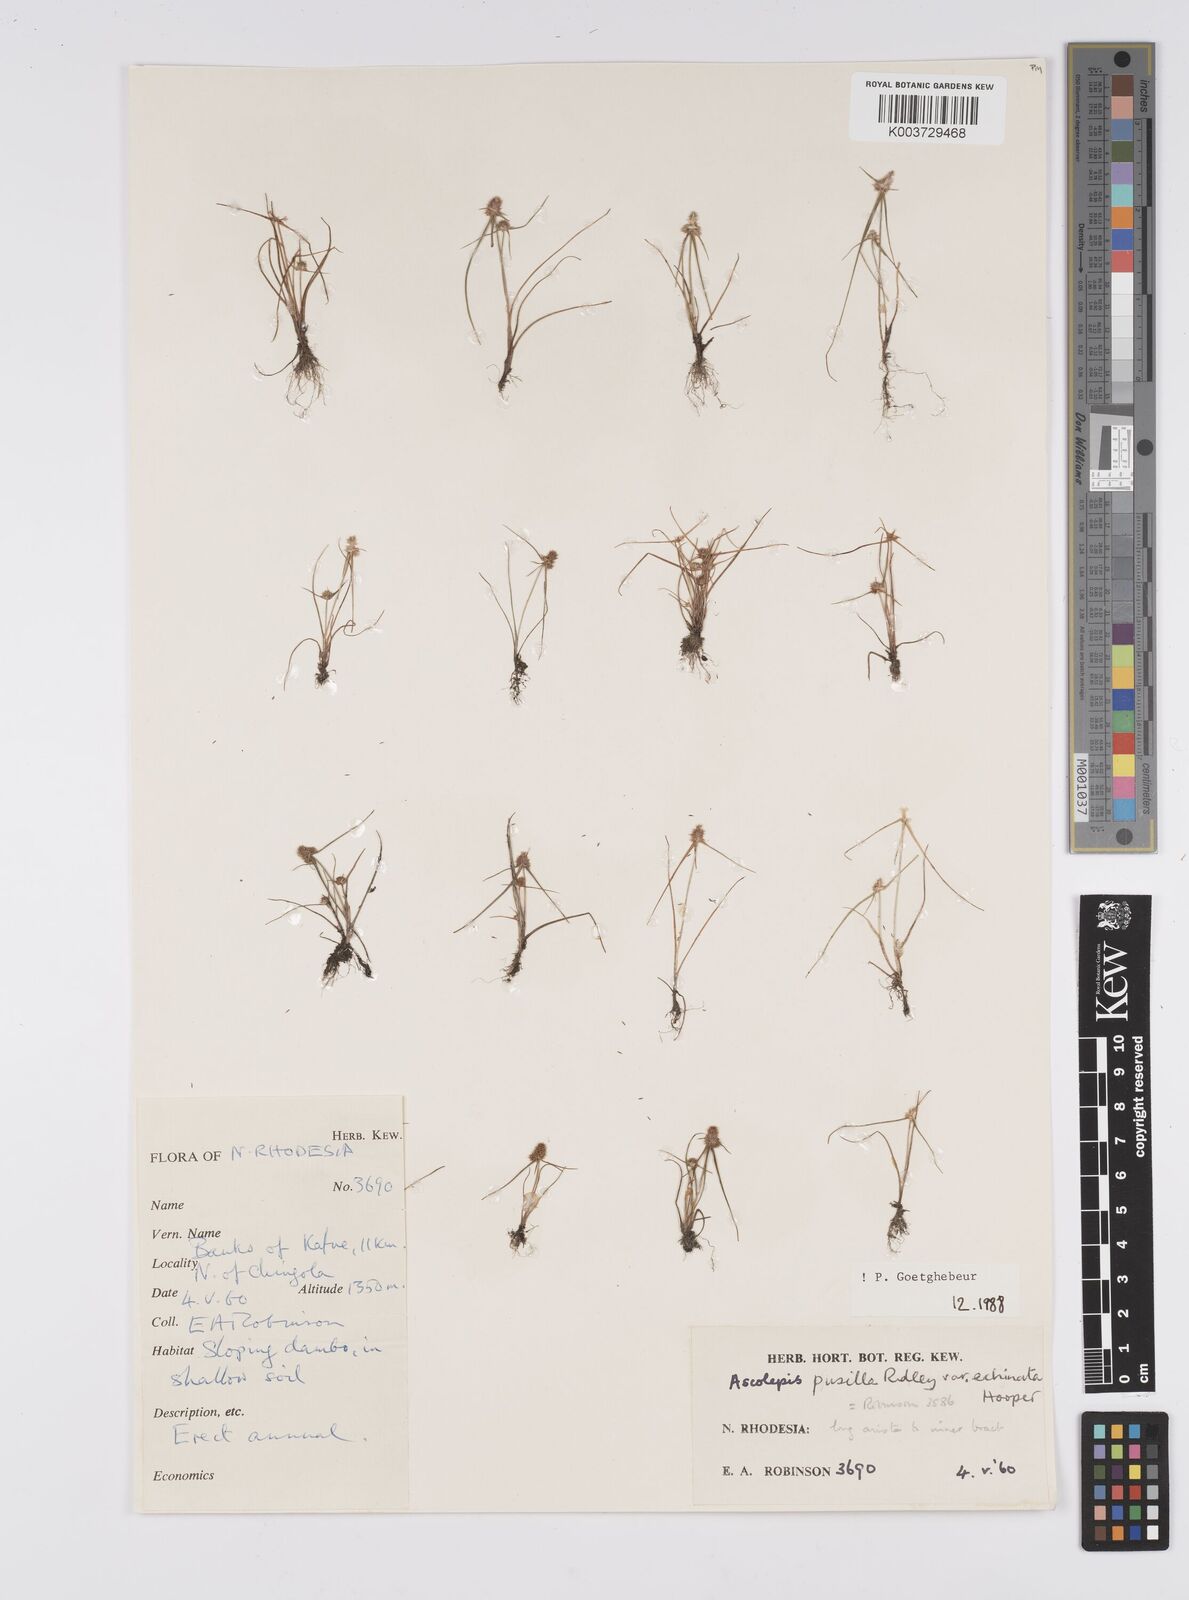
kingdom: Plantae
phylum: Tracheophyta
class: Liliopsida
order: Poales
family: Cyperaceae
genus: Cyperus
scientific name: Cyperus
